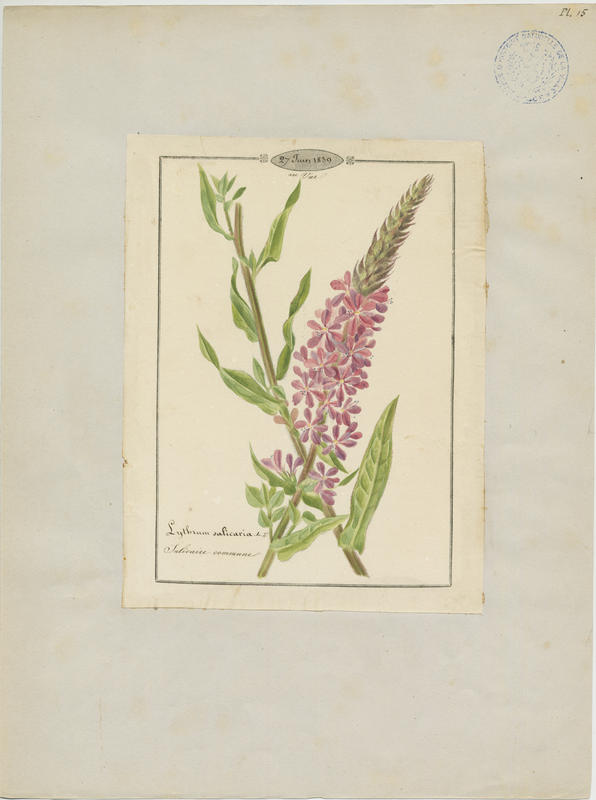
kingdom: Plantae
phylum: Tracheophyta
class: Magnoliopsida
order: Myrtales
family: Lythraceae
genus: Lythrum
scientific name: Lythrum salicaria
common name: Purple loosestrife
